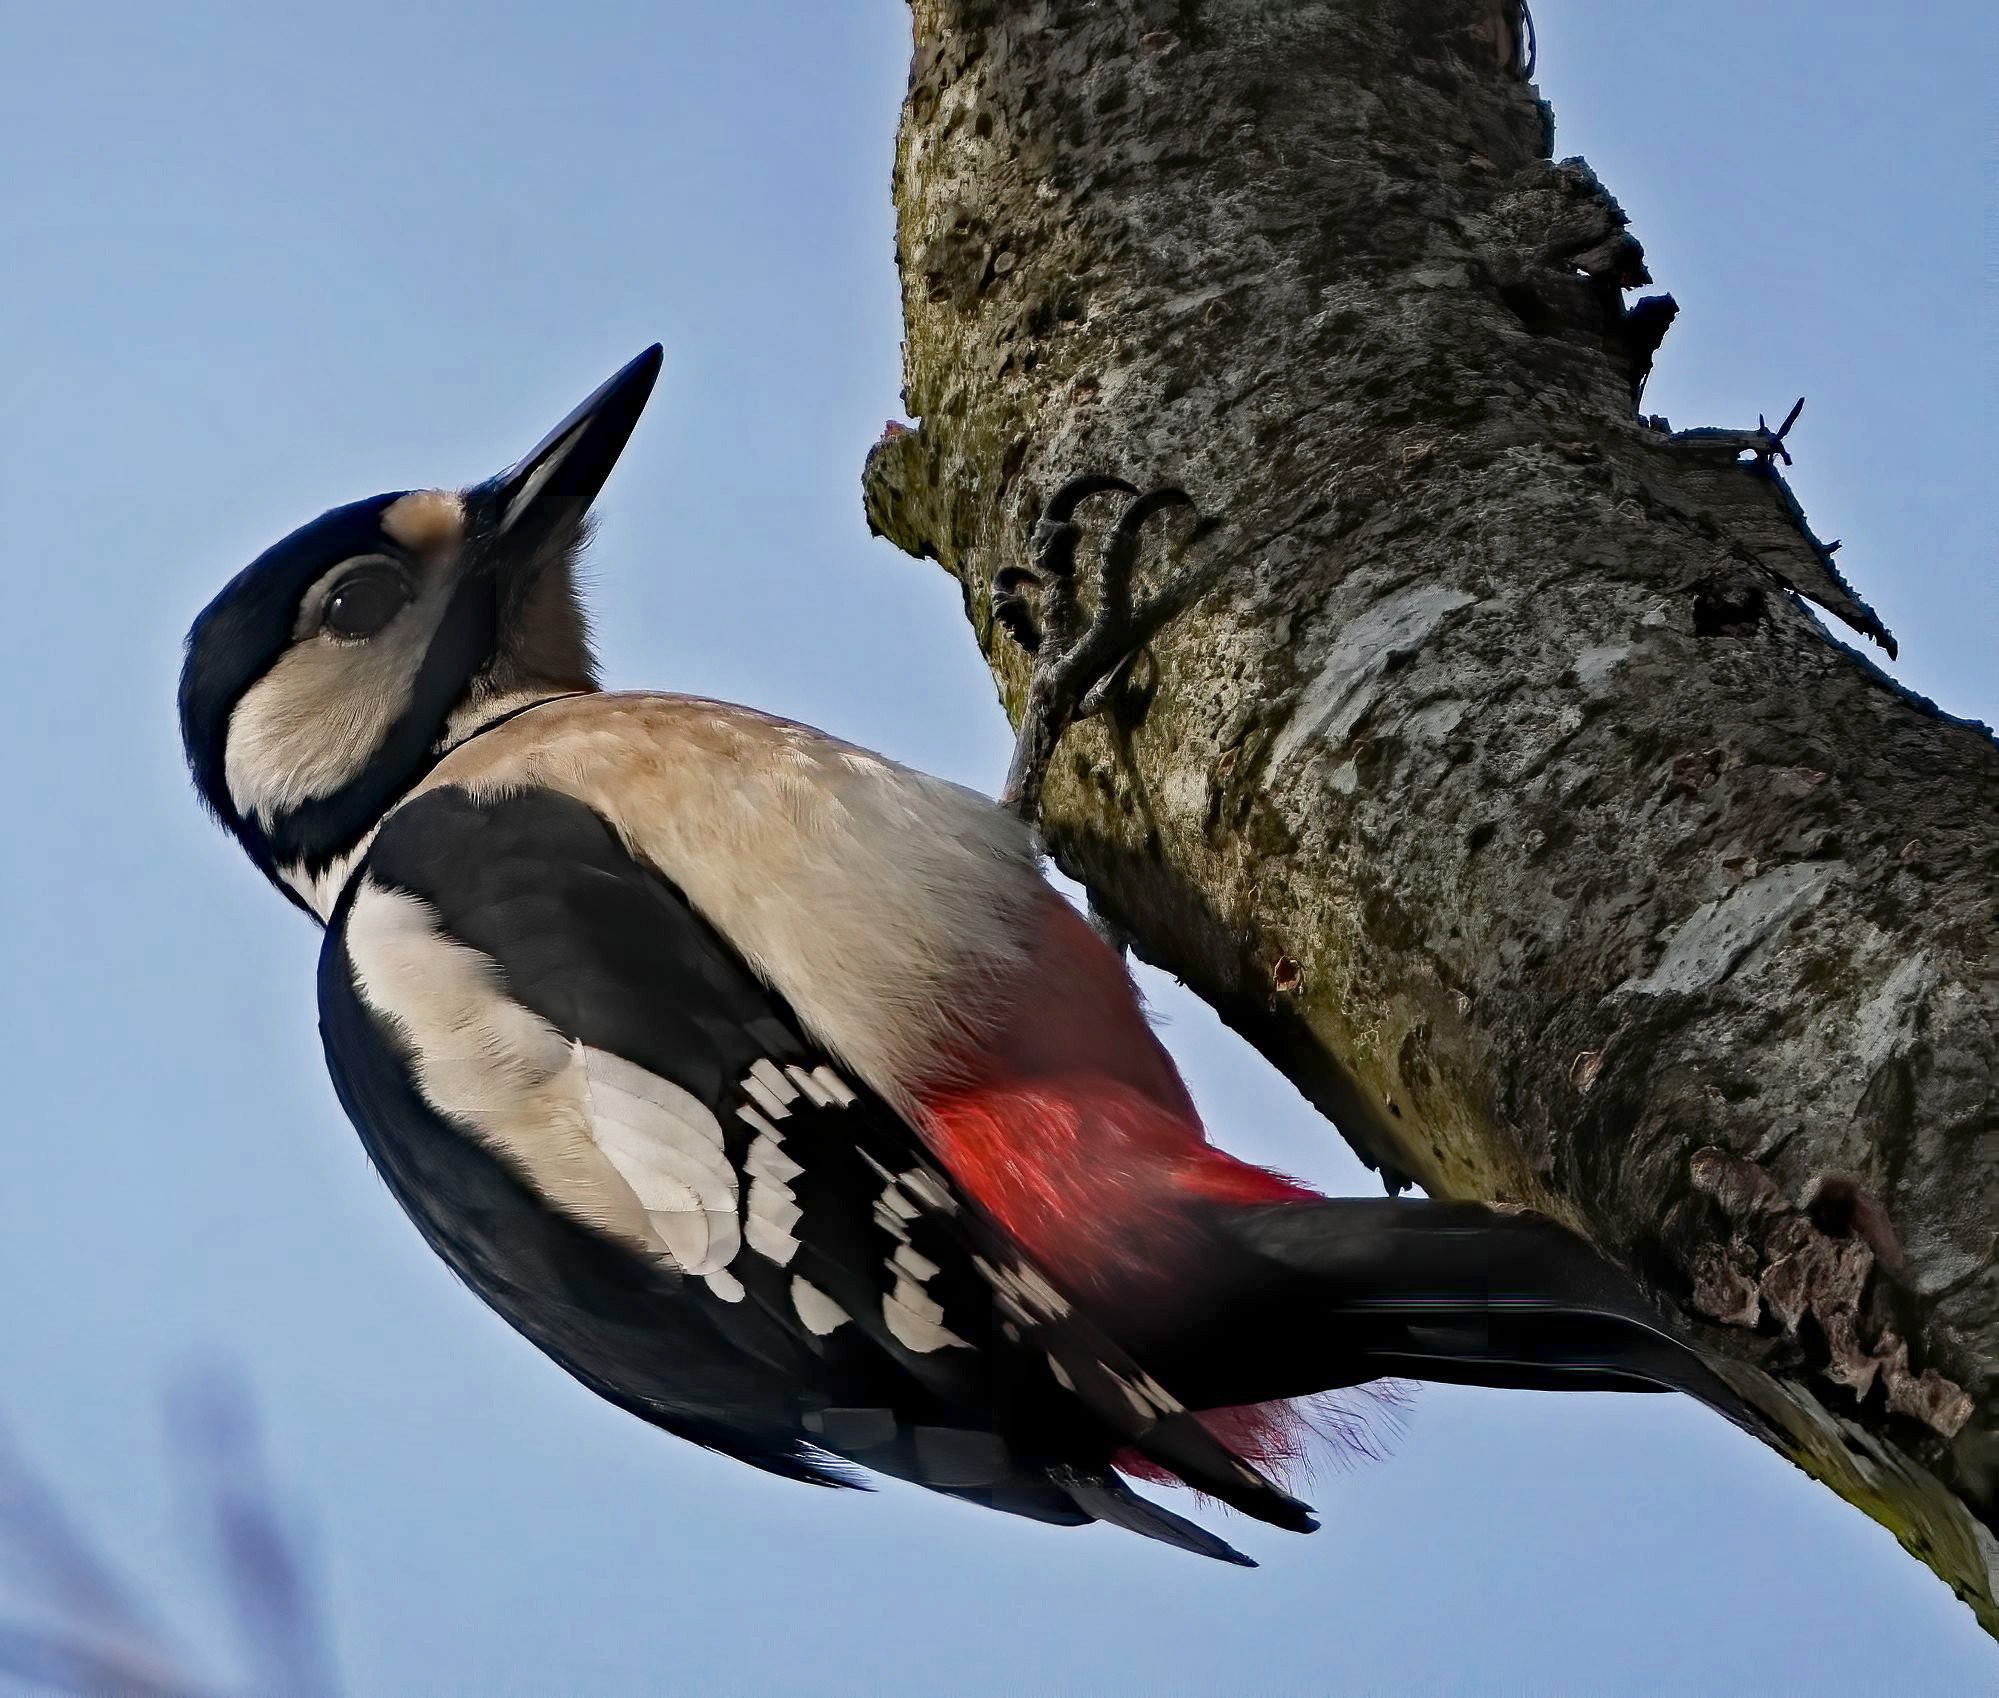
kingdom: Animalia
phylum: Chordata
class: Aves
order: Piciformes
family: Picidae
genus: Dendrocopos
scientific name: Dendrocopos major
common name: Stor flagspætte
